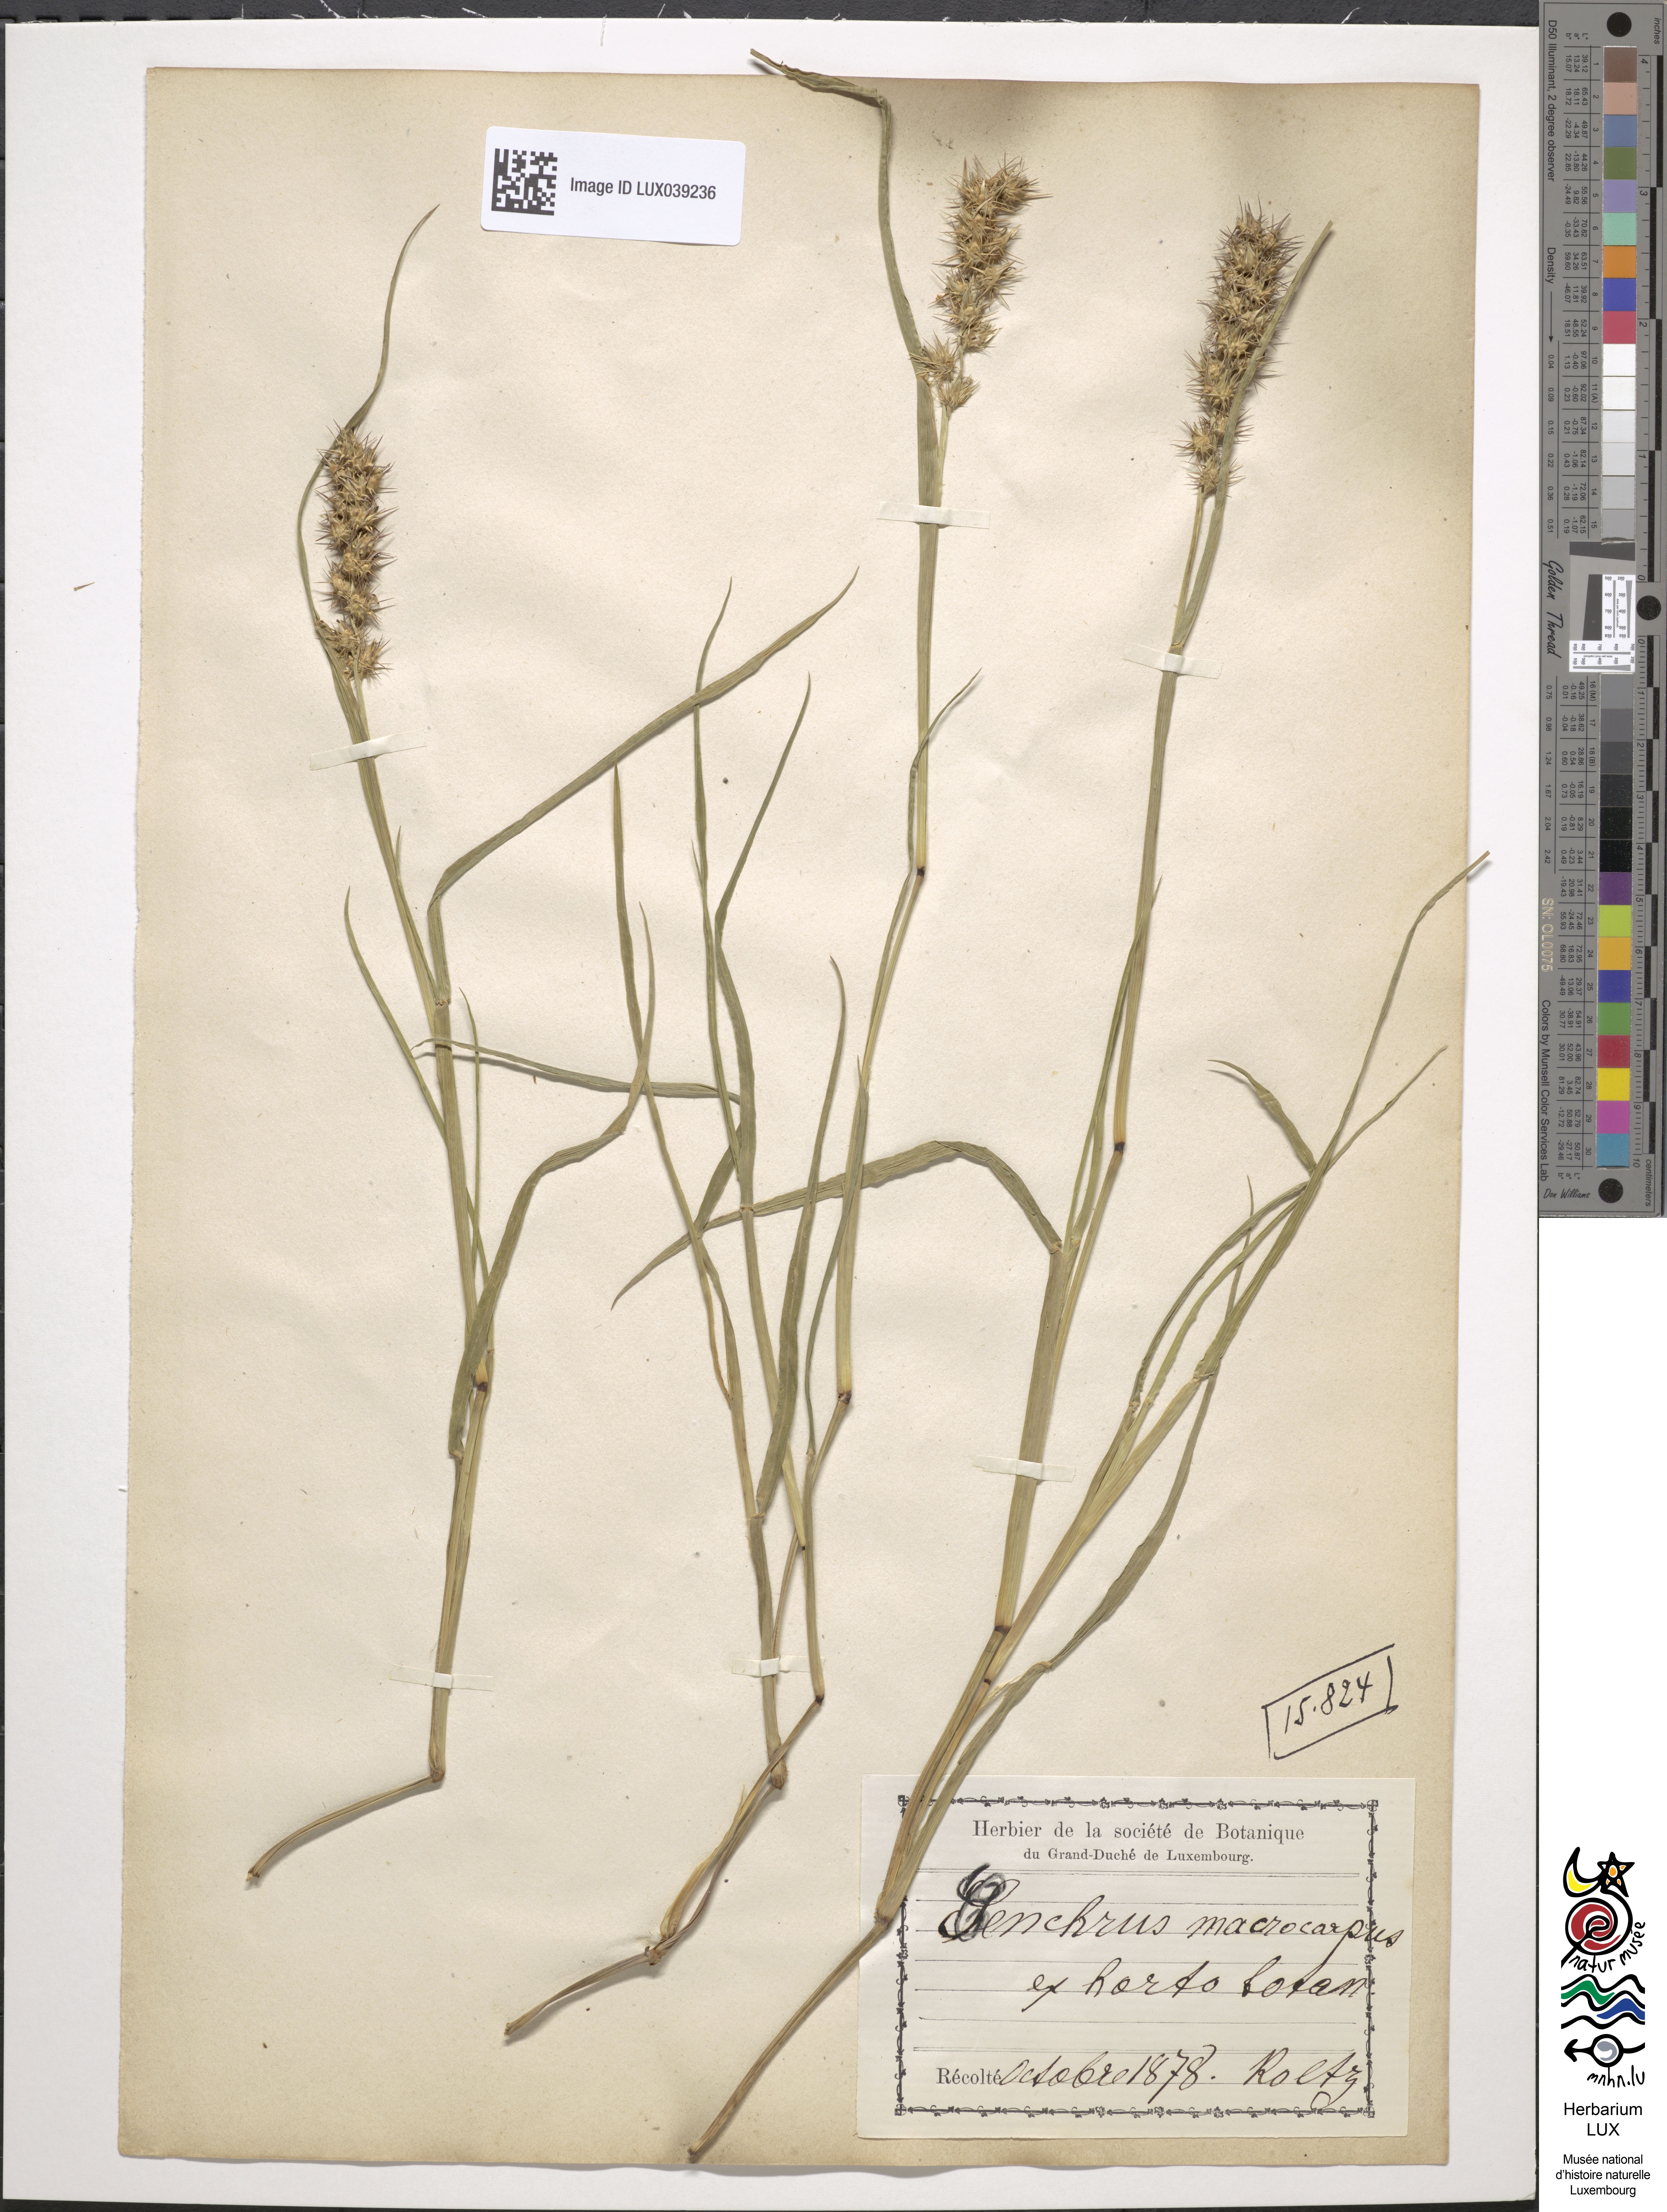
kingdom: Plantae
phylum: Tracheophyta
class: Liliopsida
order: Poales
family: Poaceae
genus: Cenchrus
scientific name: Cenchrus echinatus
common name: Southern sandbur
